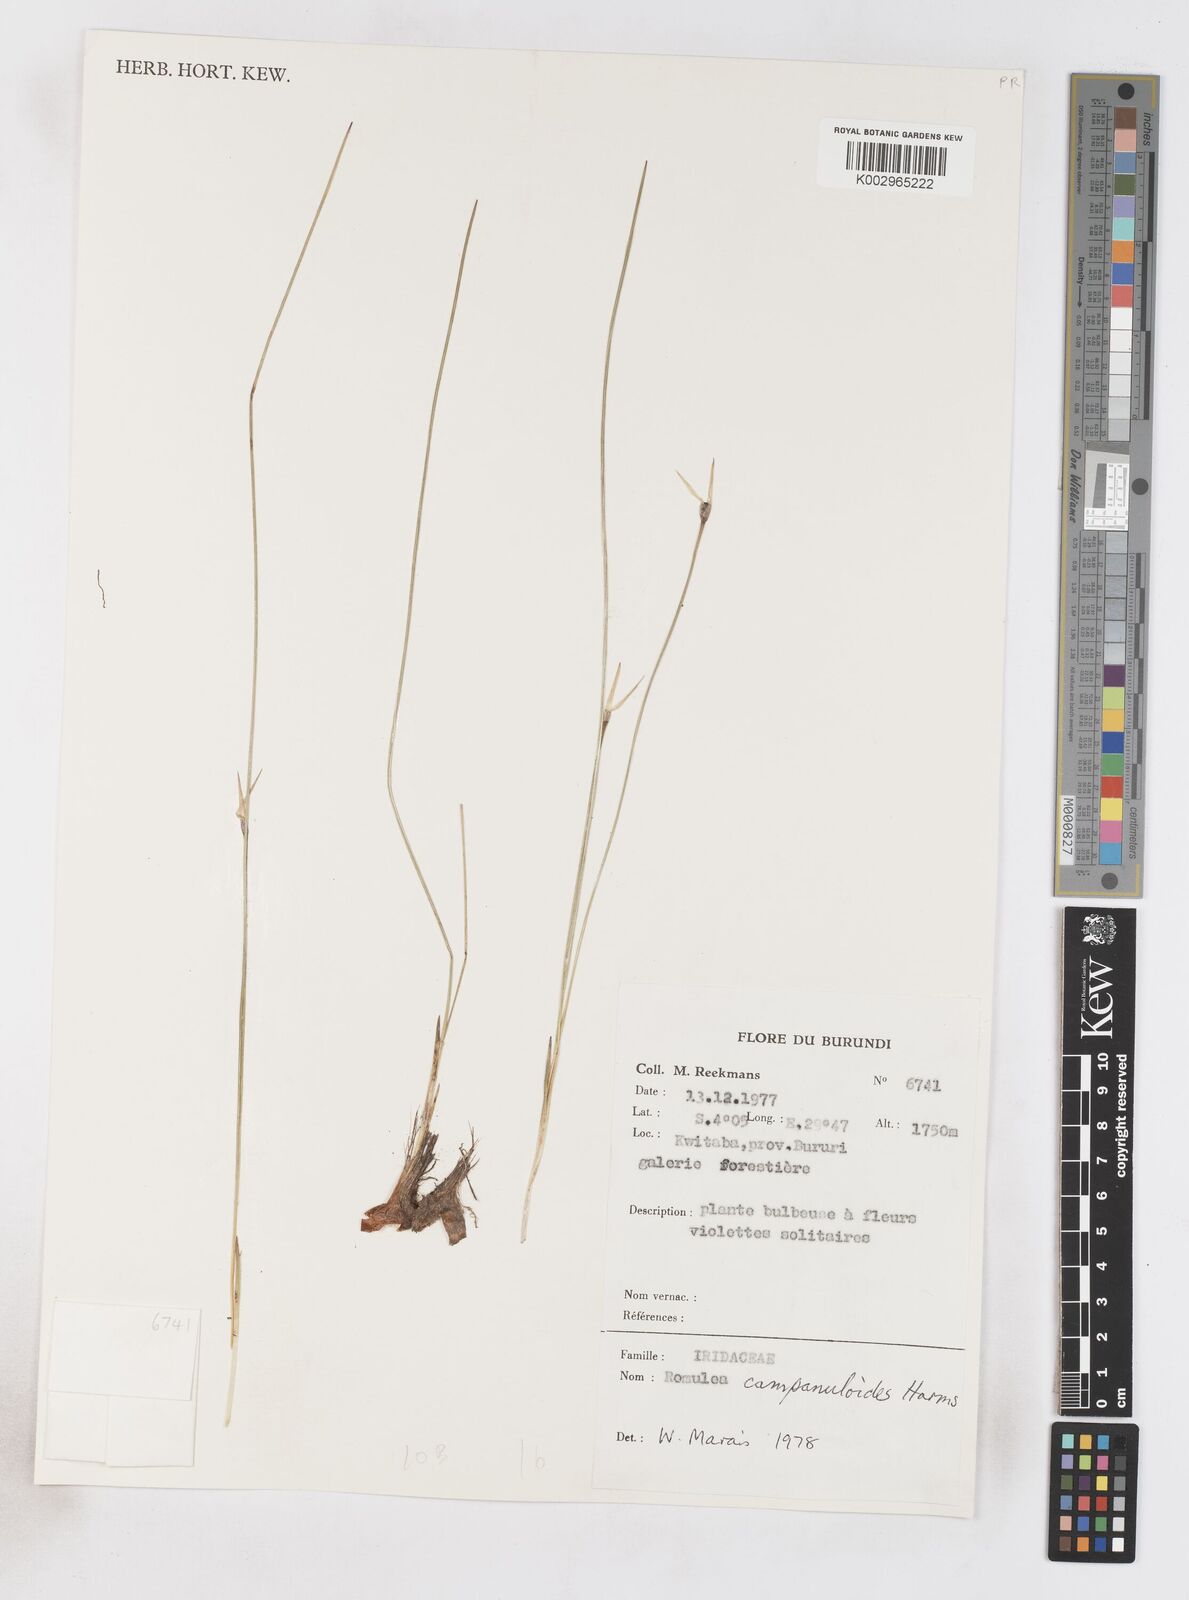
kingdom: Plantae
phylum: Tracheophyta
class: Liliopsida
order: Asparagales
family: Iridaceae
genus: Romulea
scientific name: Romulea camerooniana
